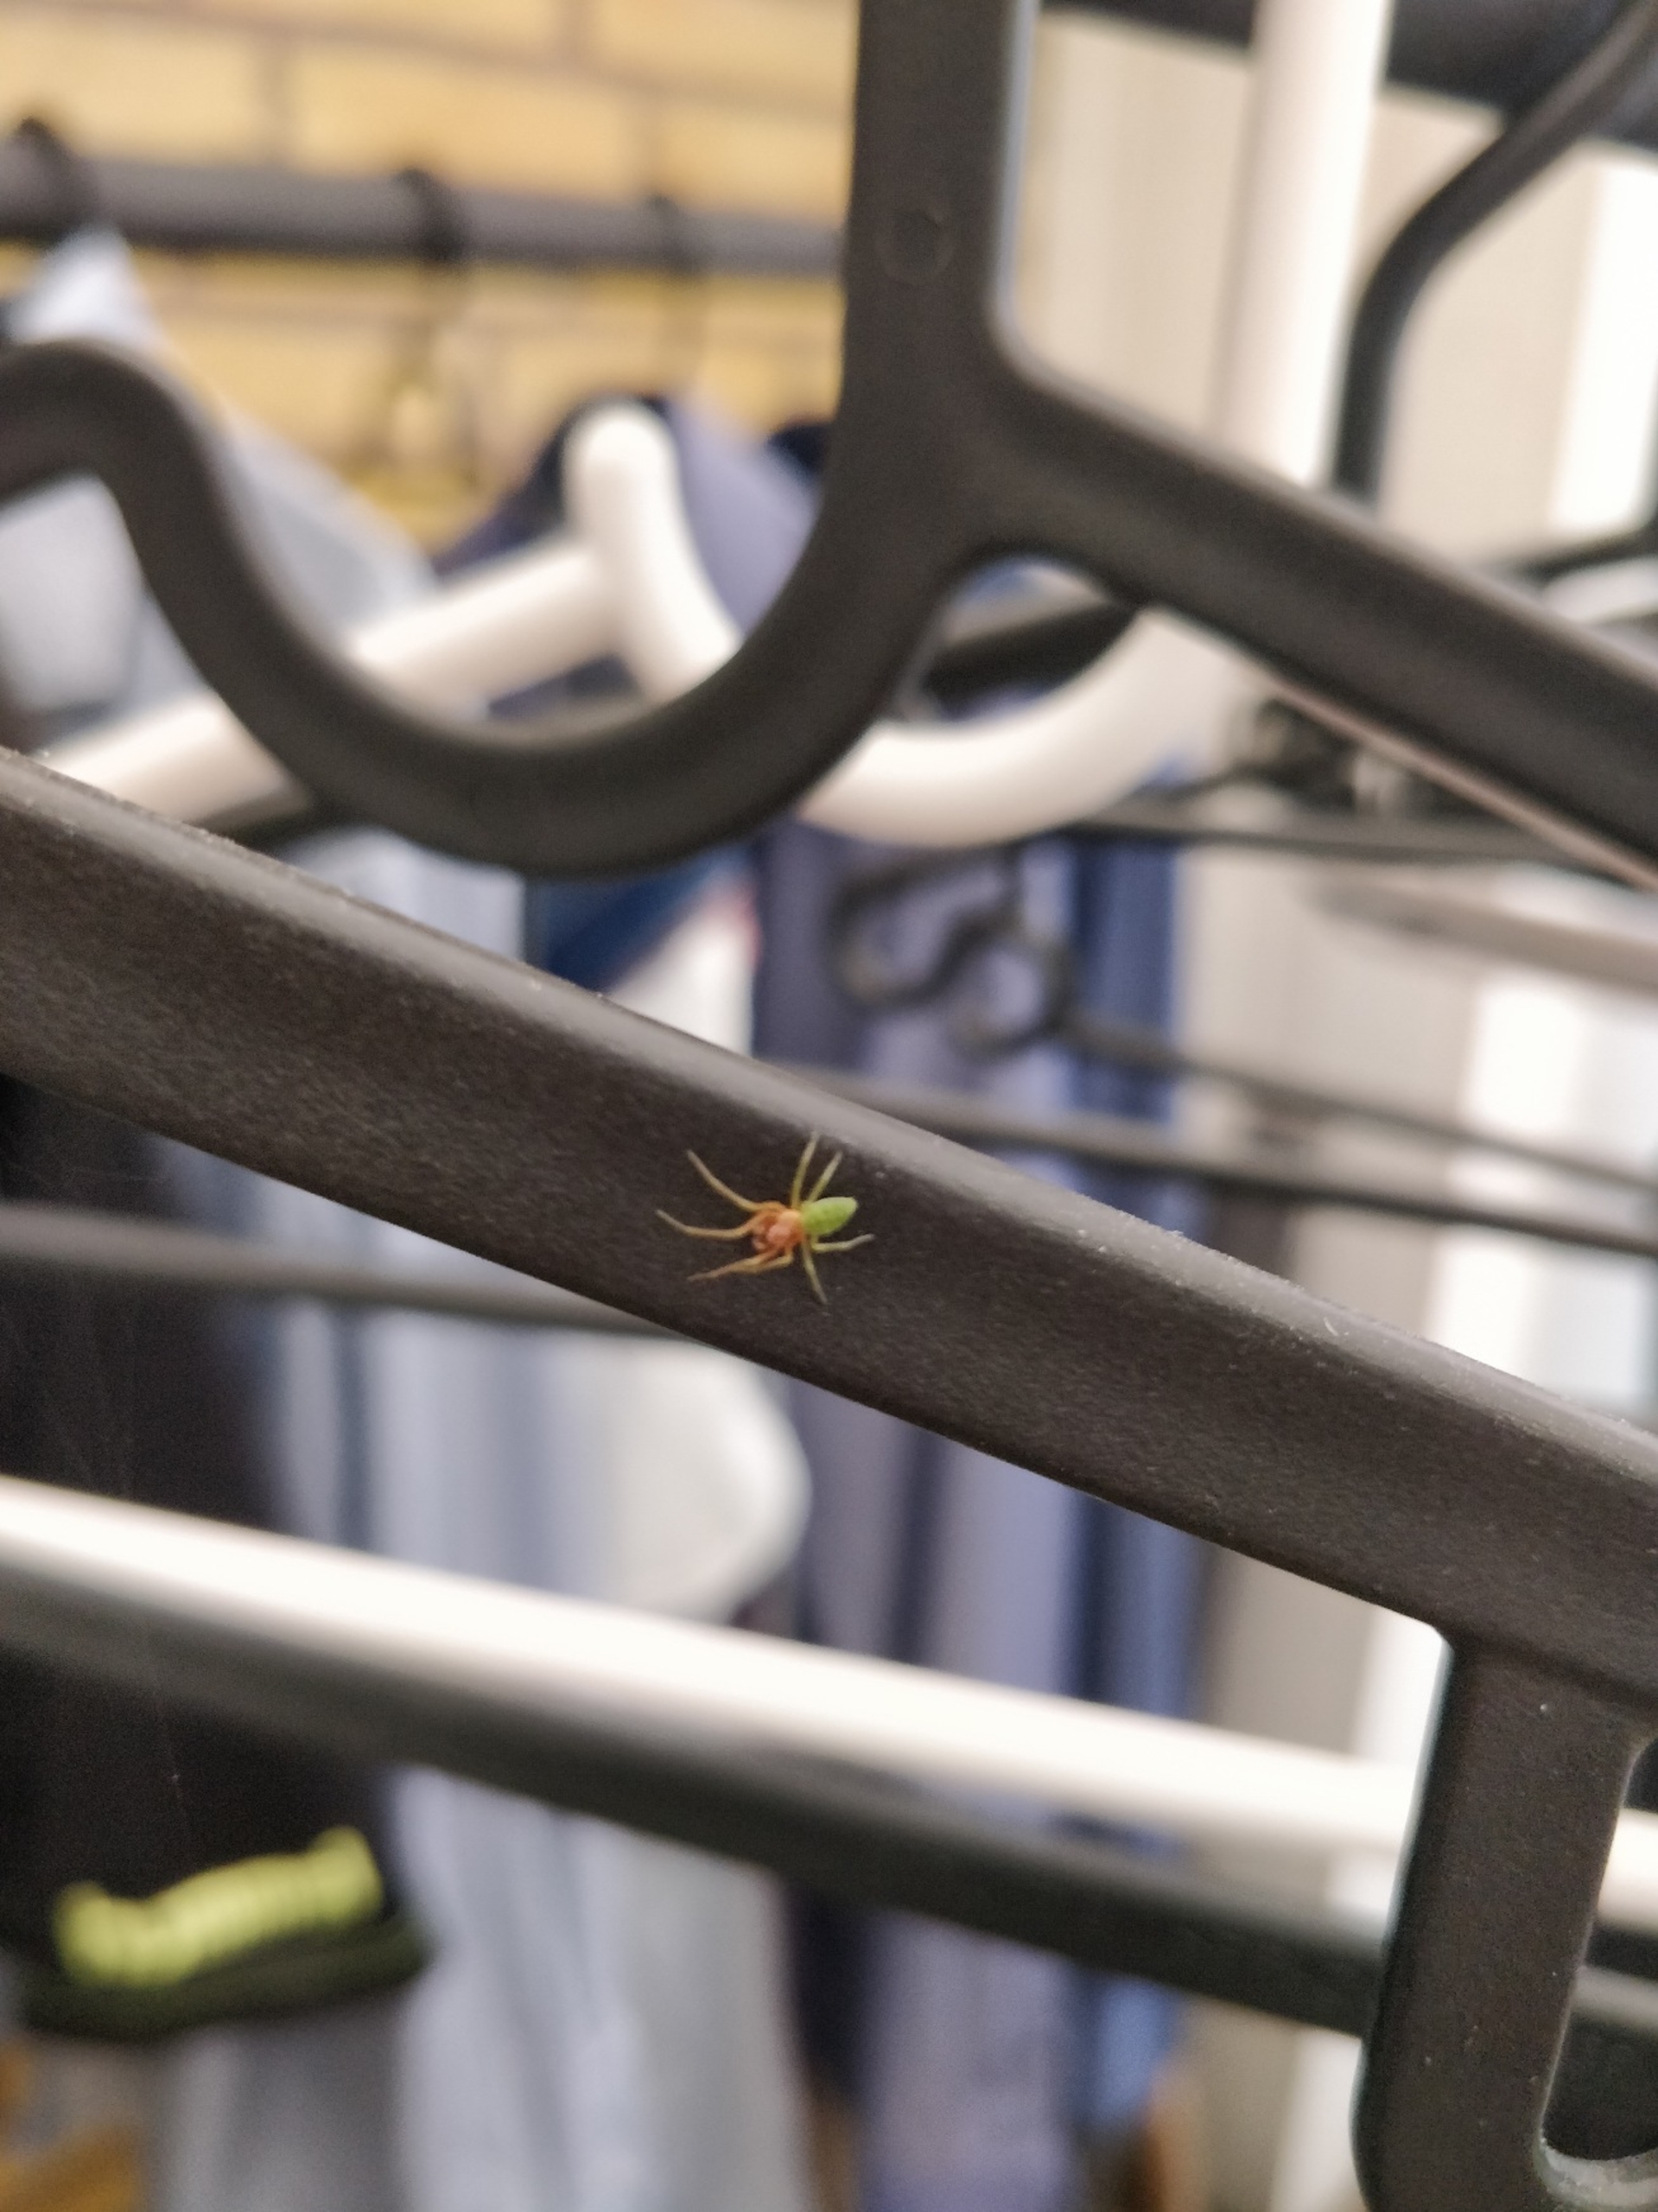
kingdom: Animalia
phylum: Arthropoda
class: Arachnida
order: Araneae
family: Dictynidae
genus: Nigma
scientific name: Nigma walckenaeri
